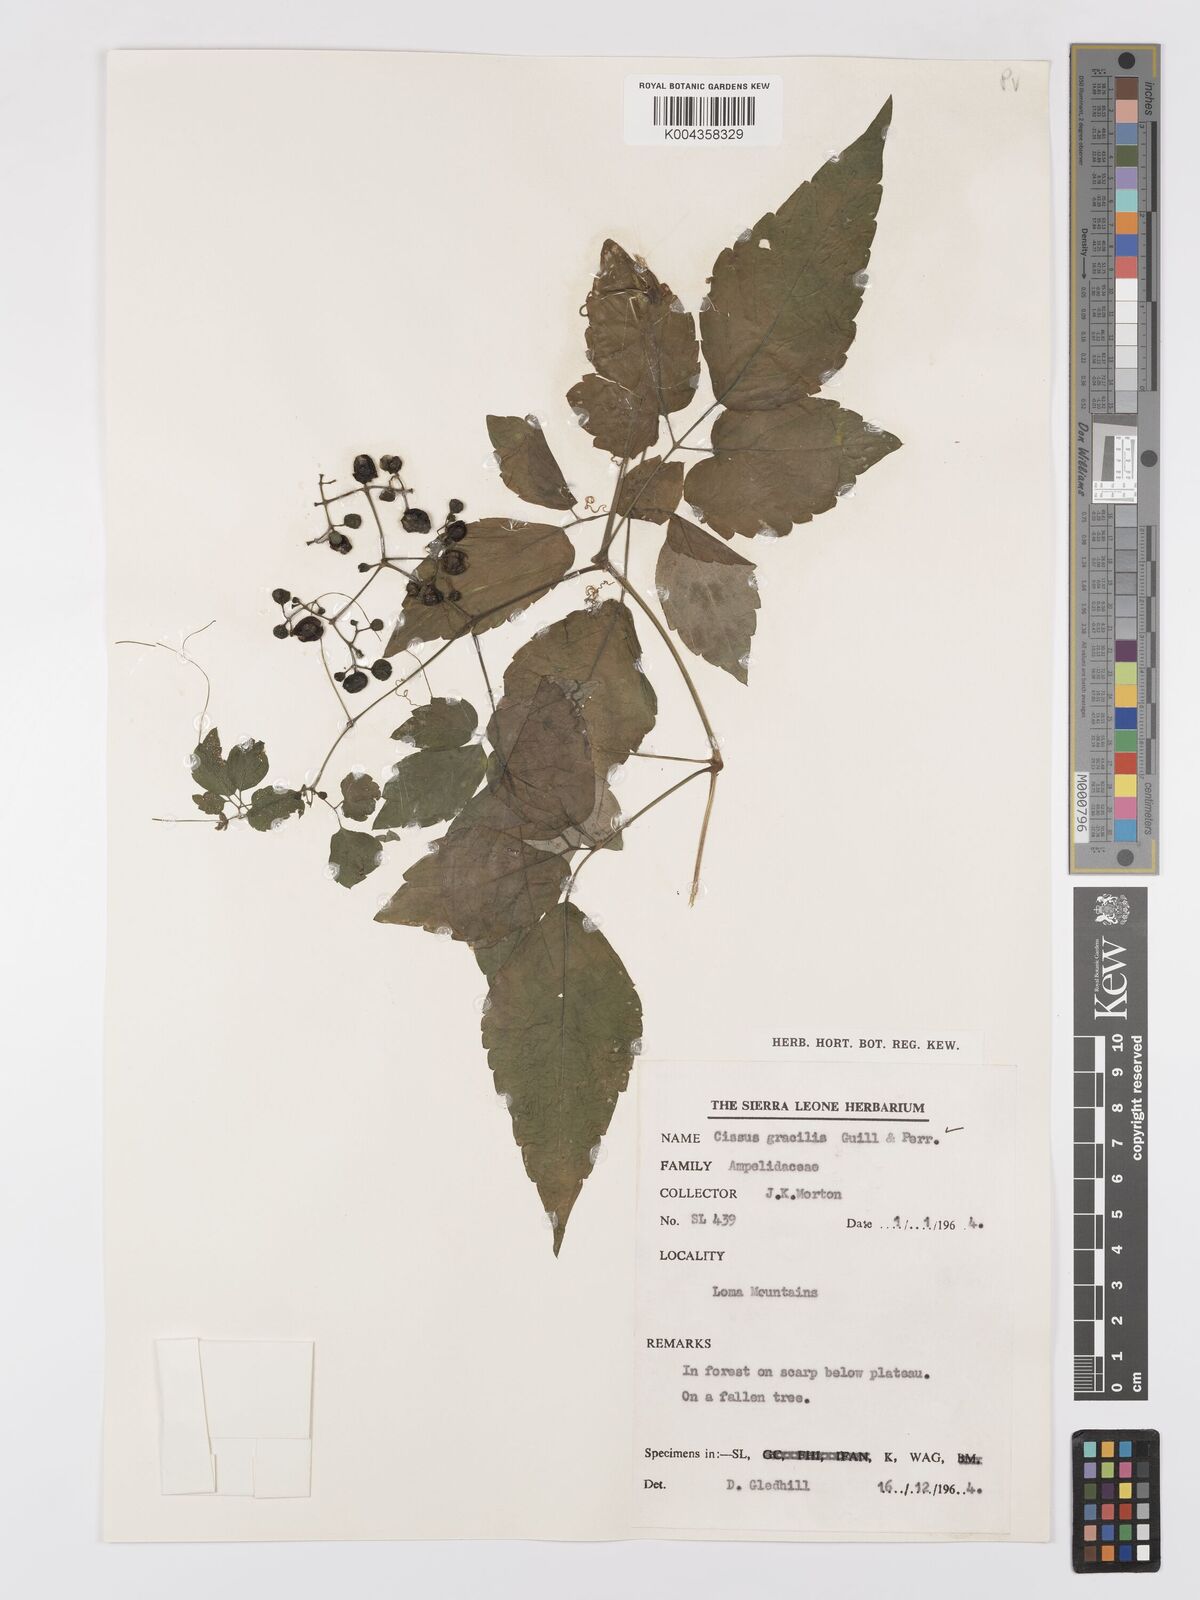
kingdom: Plantae
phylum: Tracheophyta
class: Magnoliopsida
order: Vitales
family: Vitaceae
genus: Afrocayratia
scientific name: Afrocayratia gracilis
